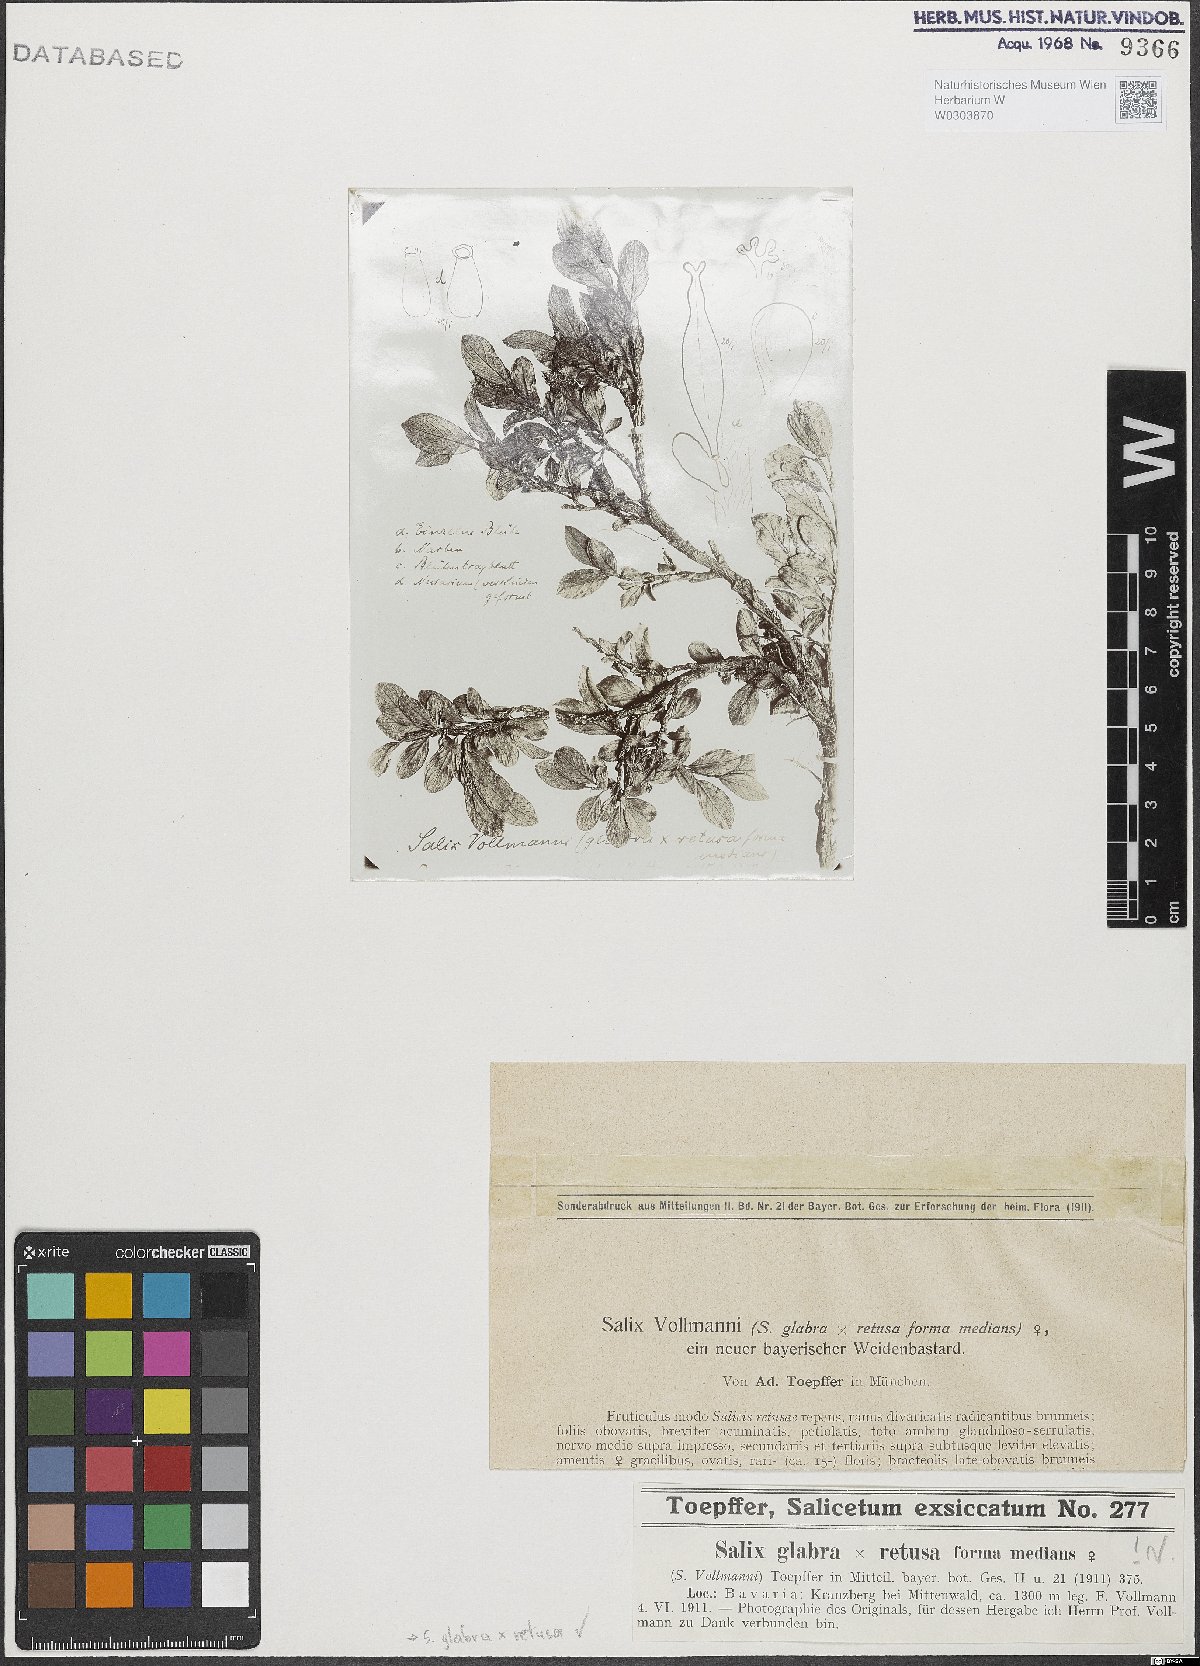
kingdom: Plantae
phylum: Tracheophyta
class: Magnoliopsida
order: Malpighiales
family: Salicaceae
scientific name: Salicaceae
